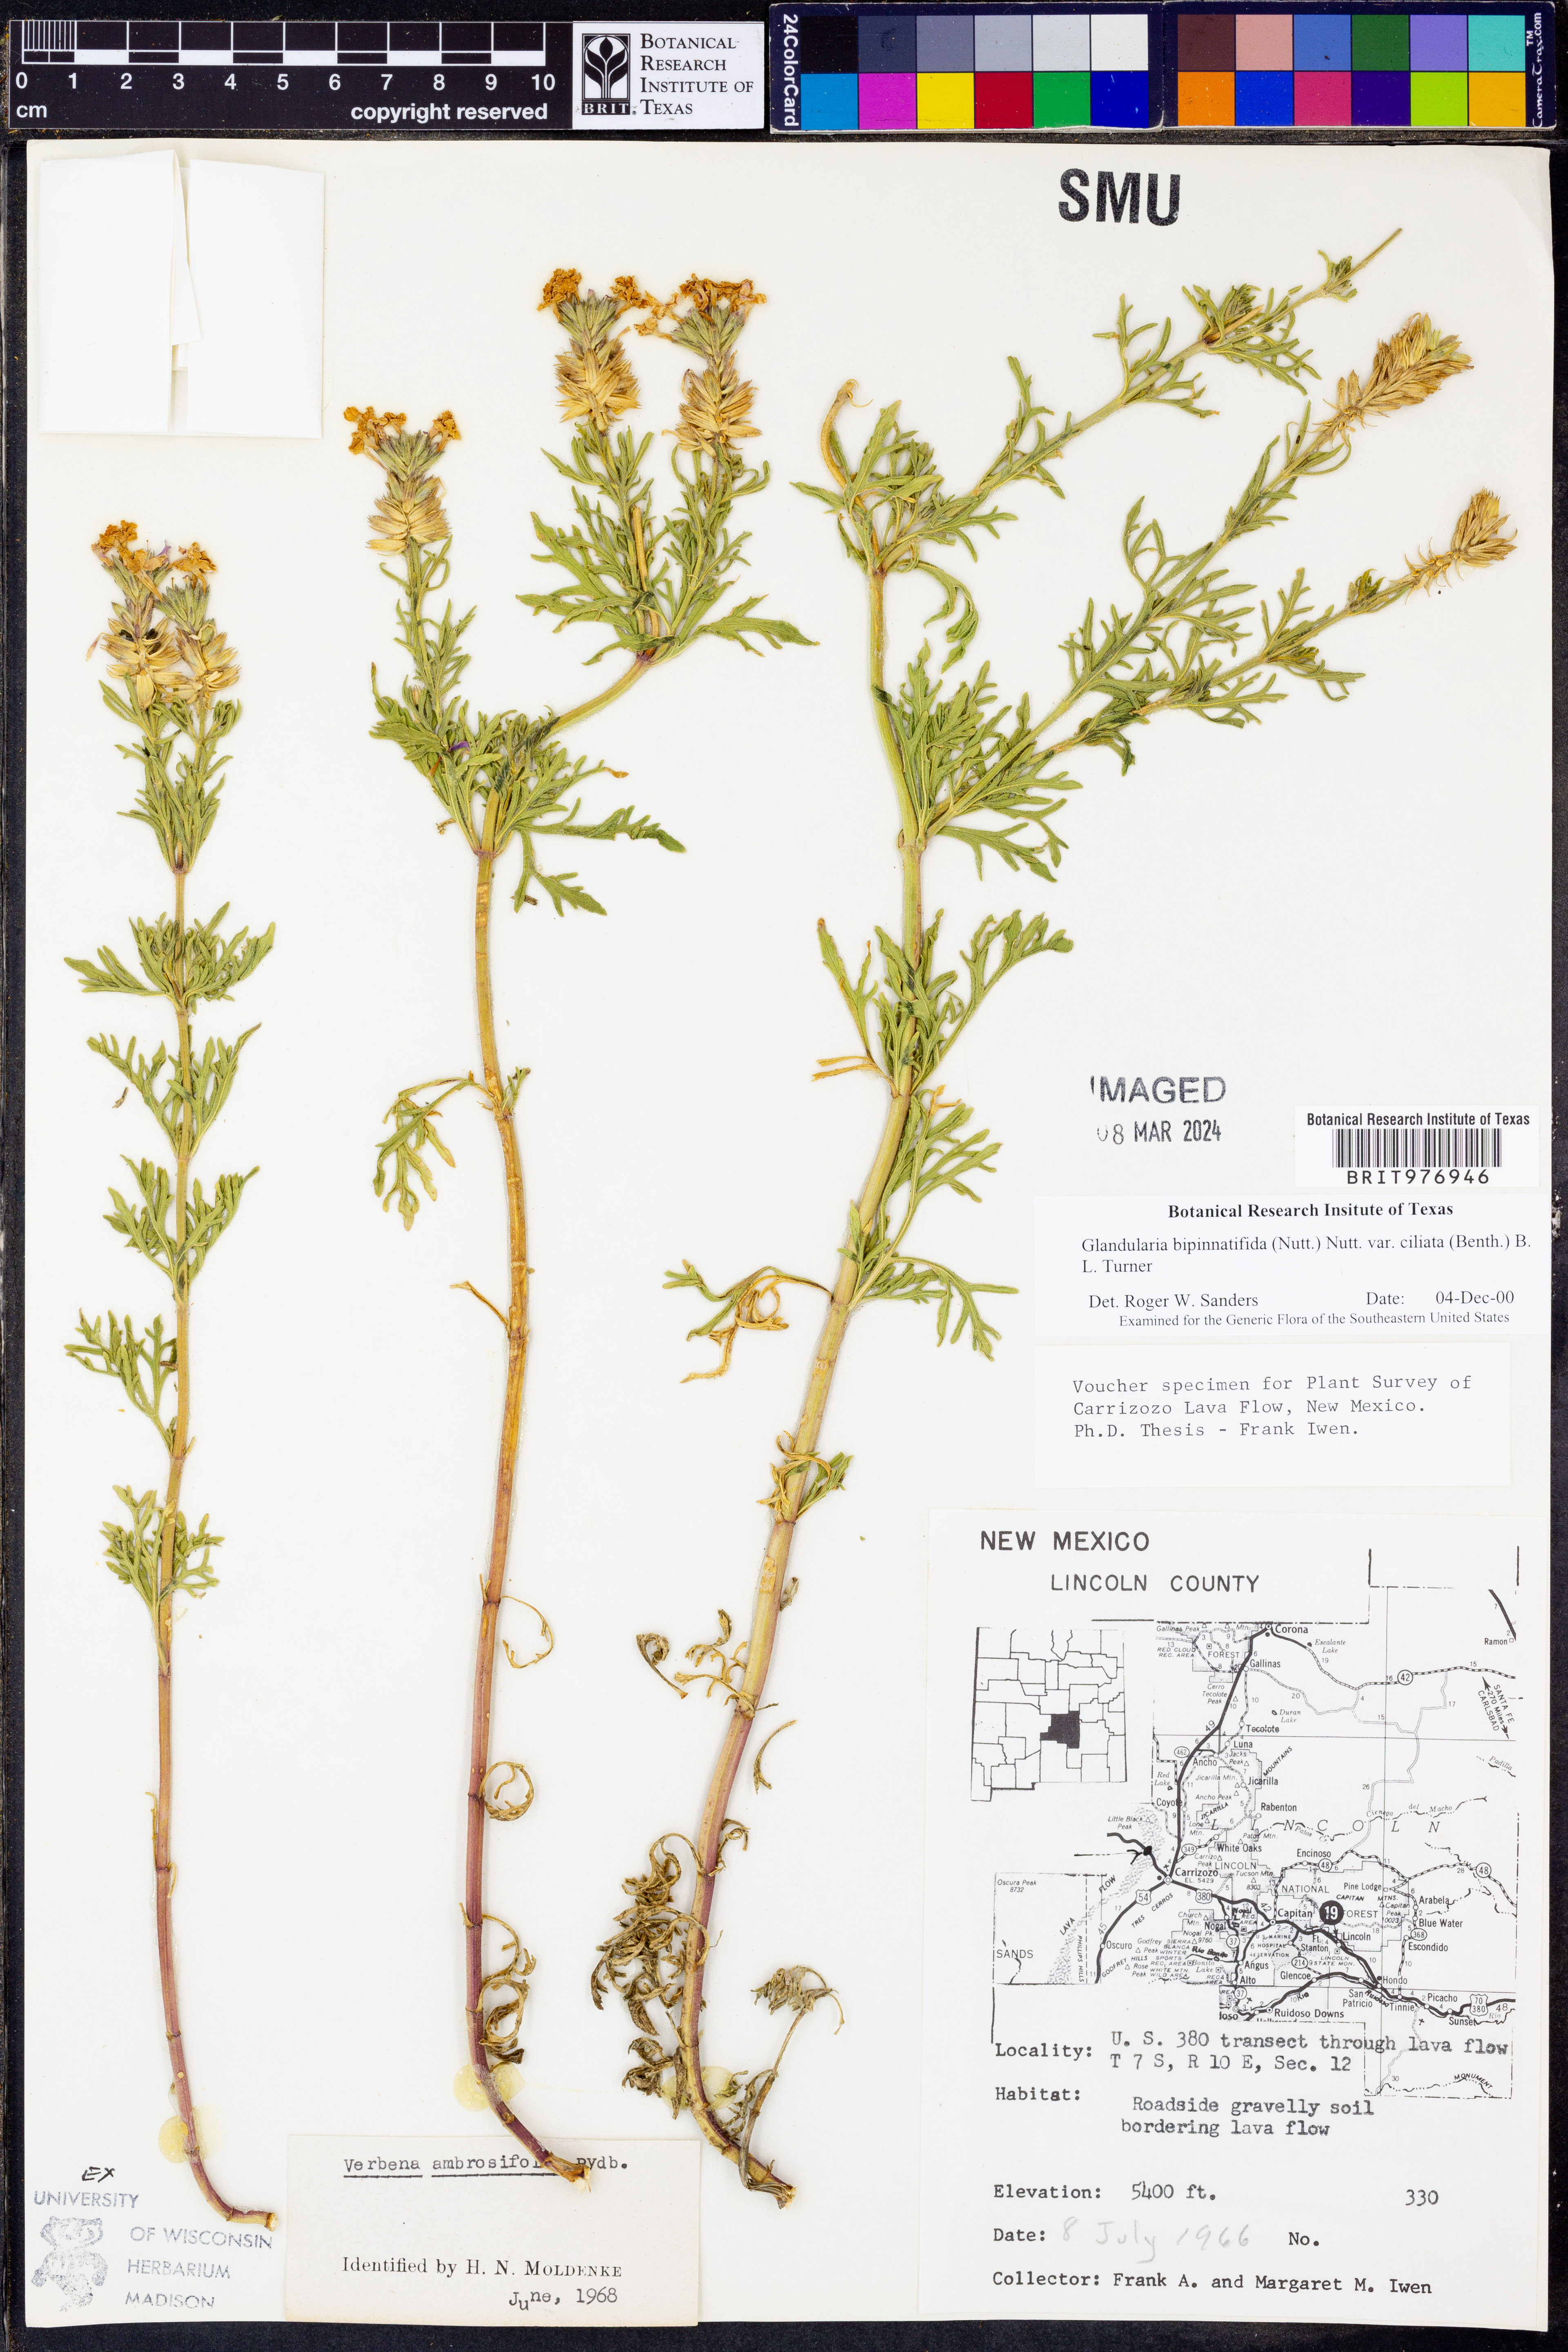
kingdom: Plantae
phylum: Tracheophyta
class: Magnoliopsida
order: Lamiales
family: Verbenaceae
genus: Verbena
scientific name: Verbena bipinnatifida
